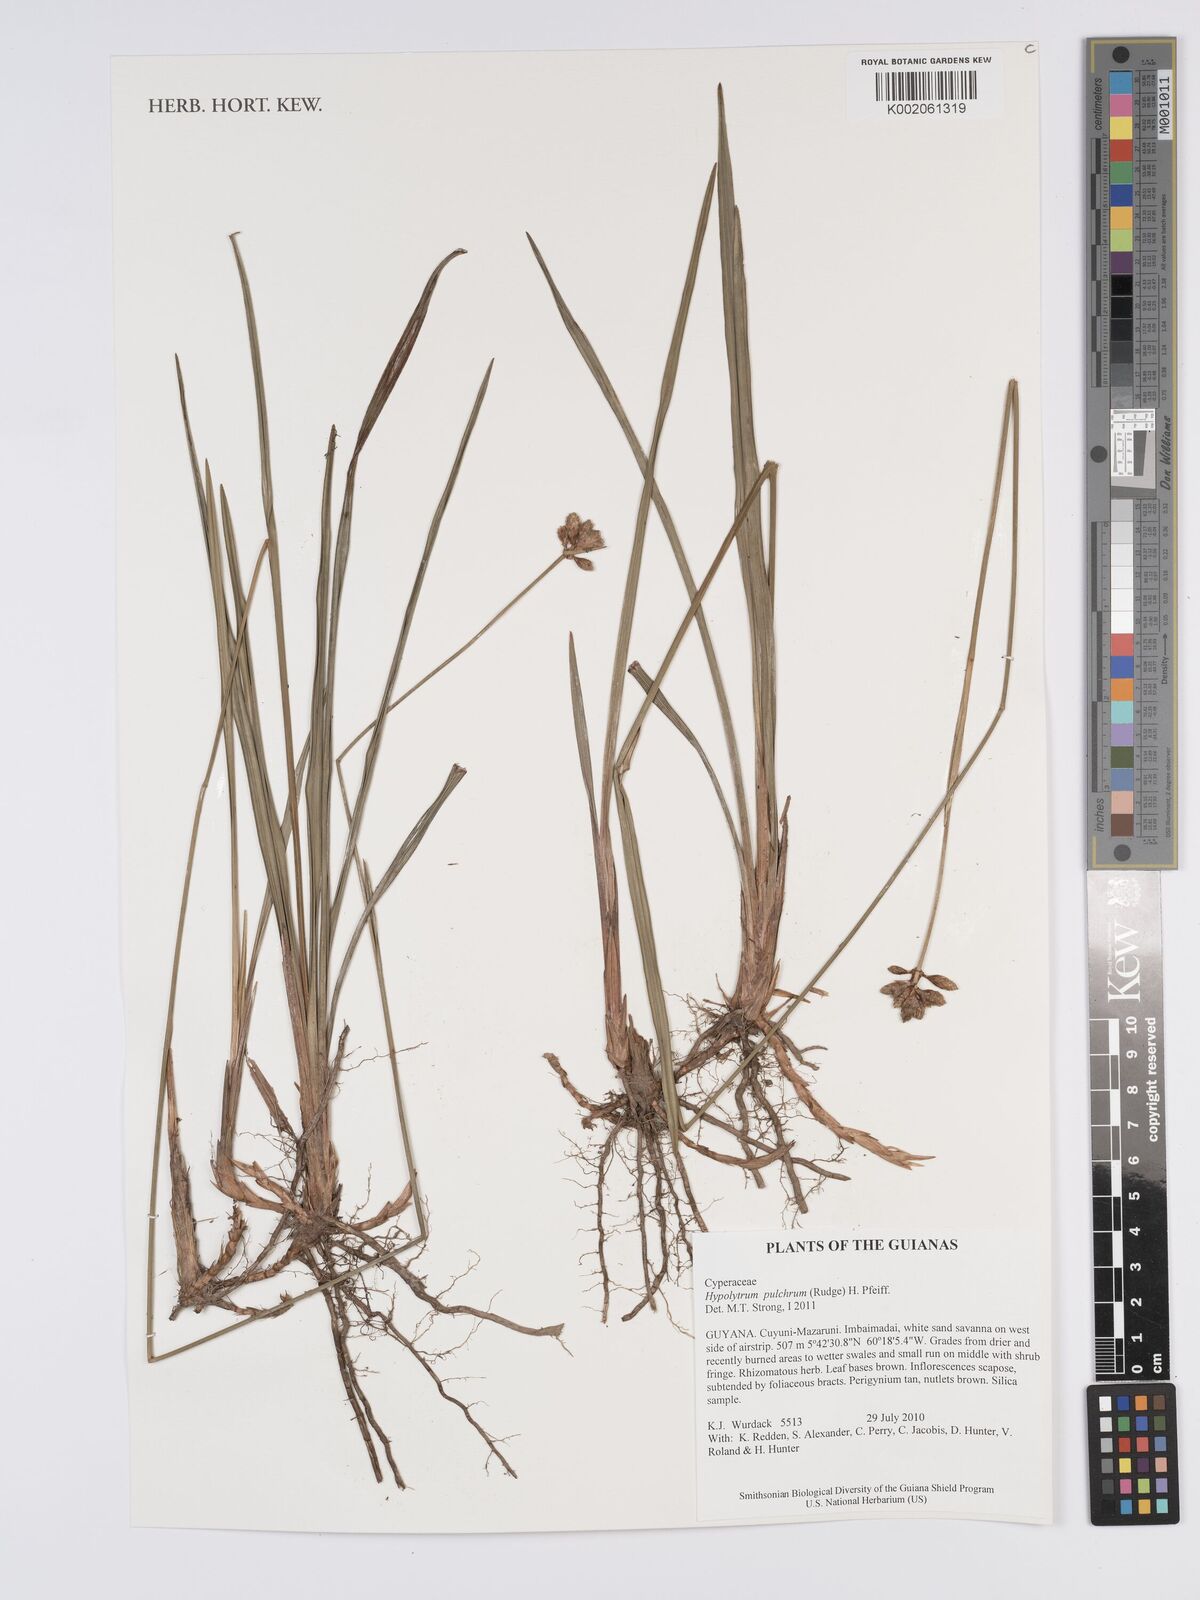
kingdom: Plantae
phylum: Tracheophyta
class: Liliopsida
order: Poales
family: Cyperaceae
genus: Hypolytrum
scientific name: Hypolytrum pulchrum
